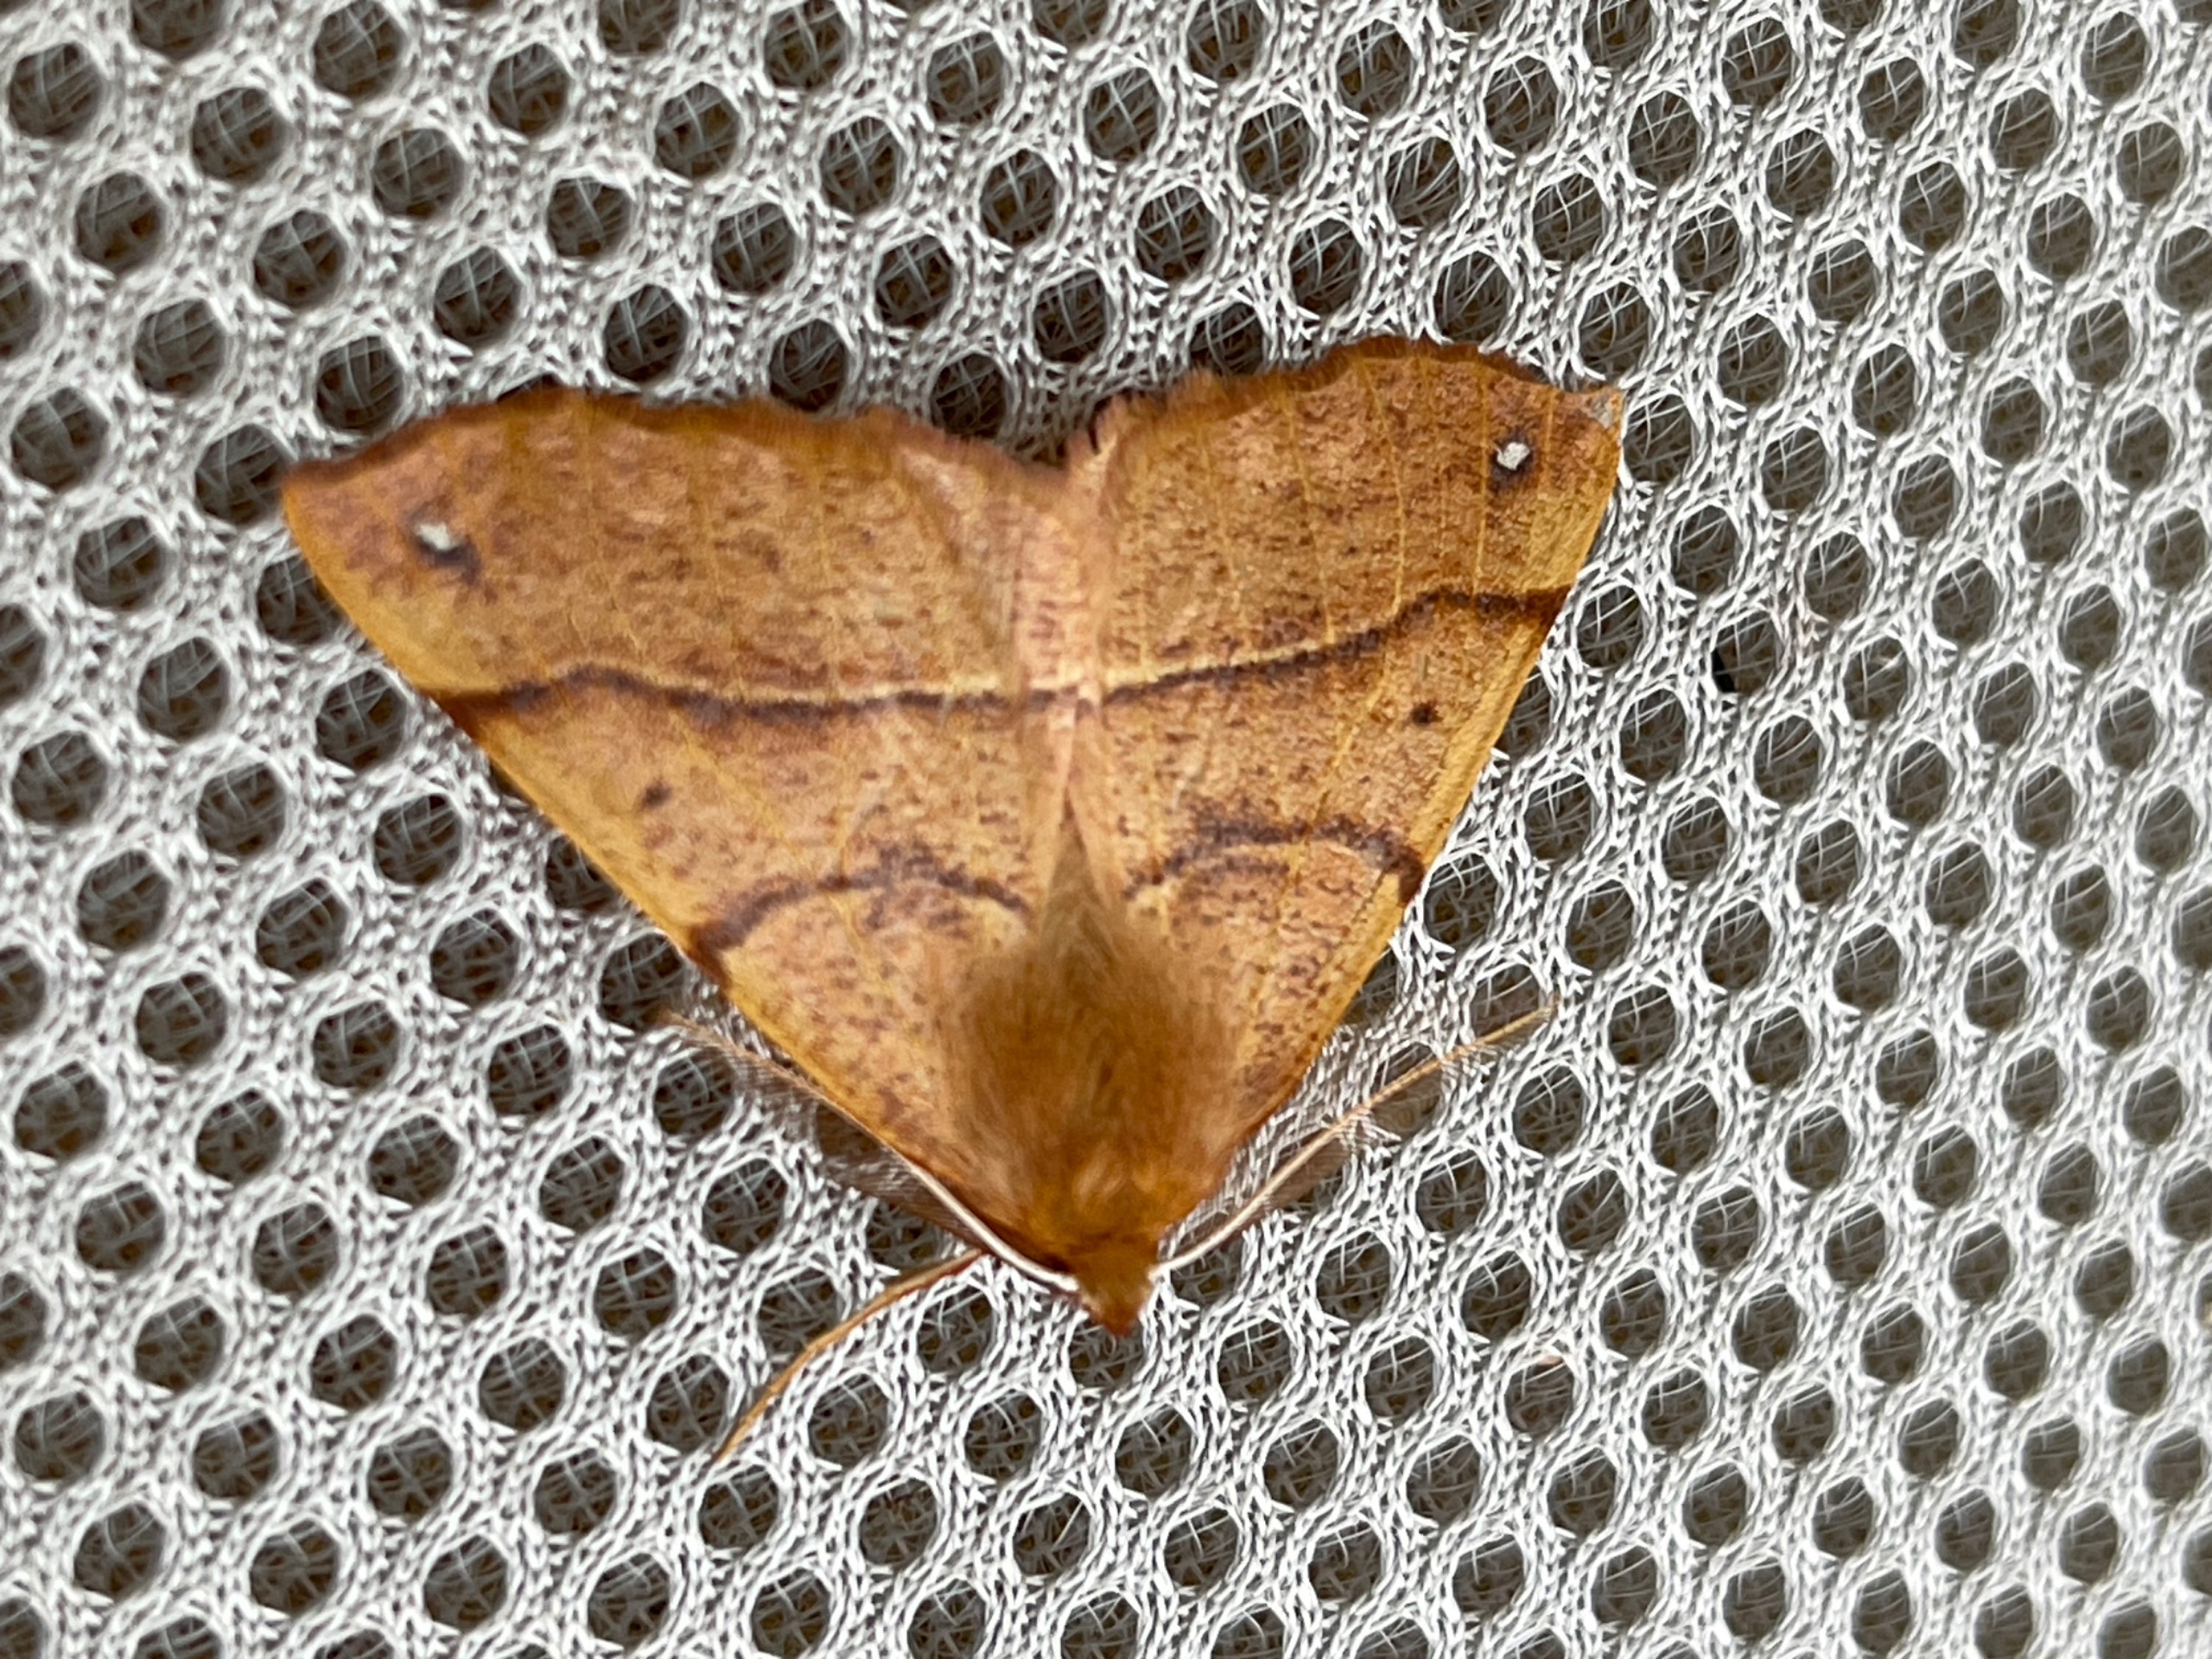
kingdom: Animalia
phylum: Arthropoda
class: Insecta
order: Lepidoptera
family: Geometridae
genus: Colotois
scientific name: Colotois pennaria
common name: Løvfaldsmåler
